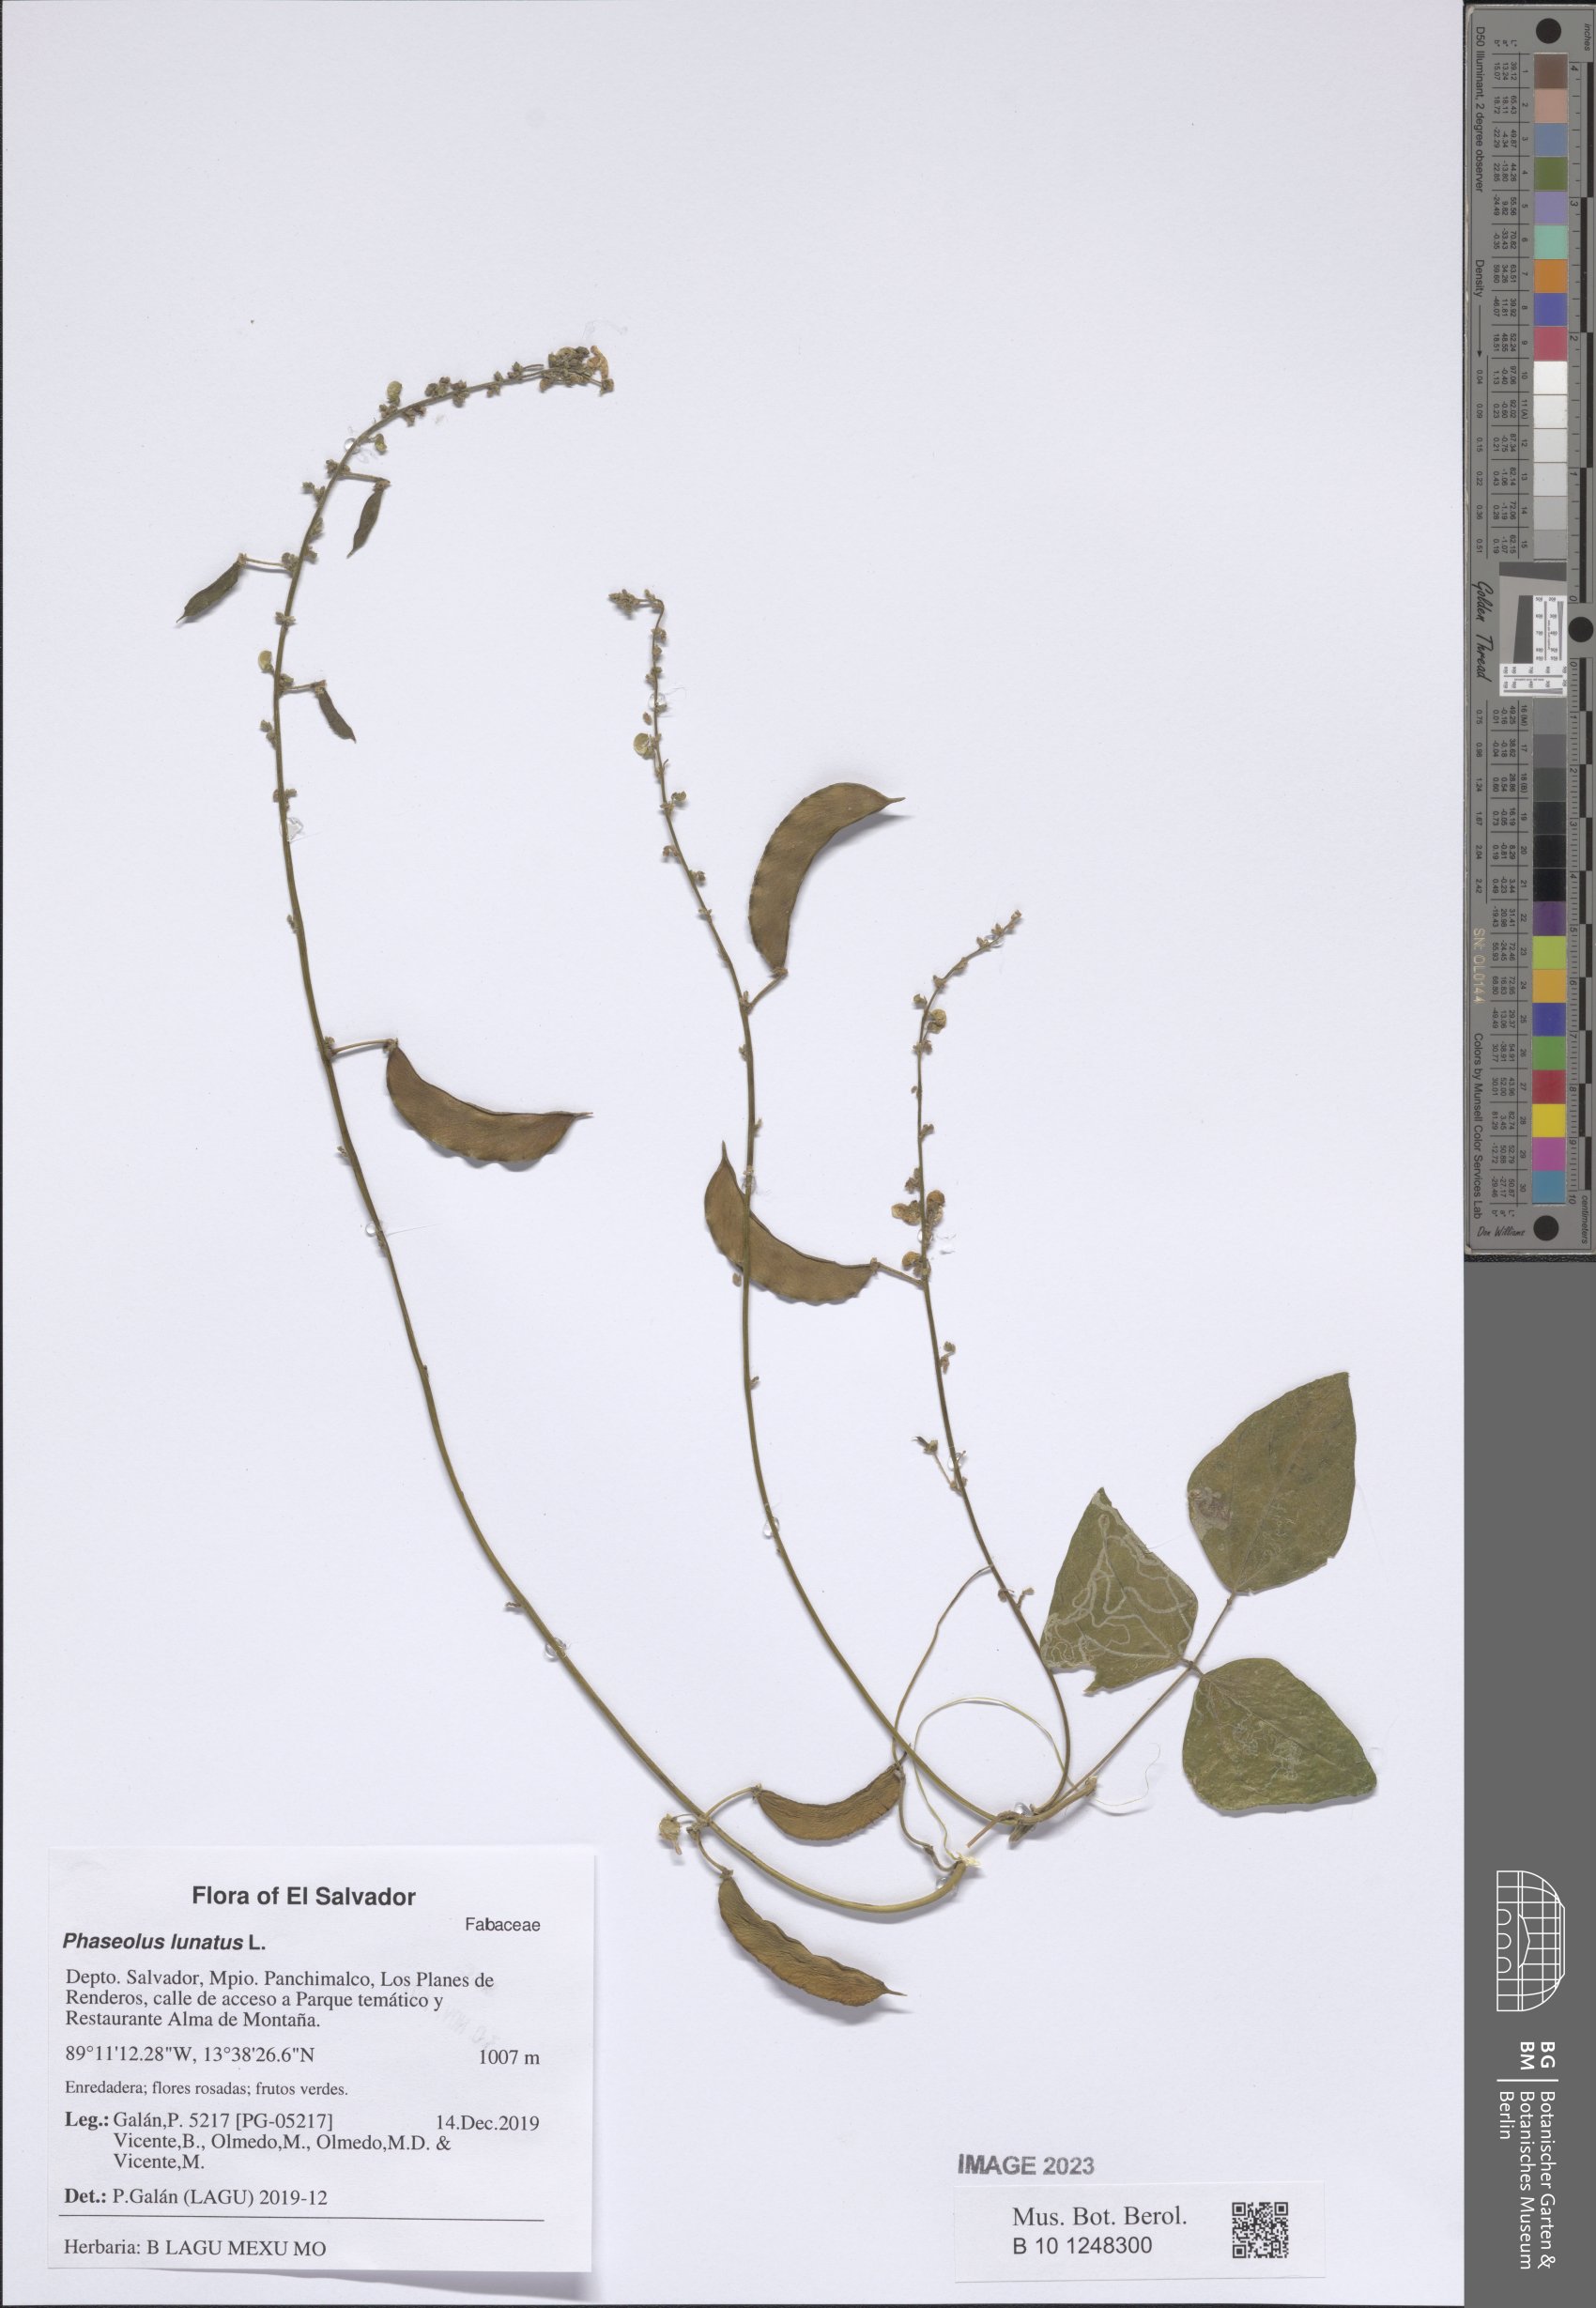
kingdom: Plantae
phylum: Tracheophyta
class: Magnoliopsida
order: Fabales
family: Fabaceae
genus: Phaseolus
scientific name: Phaseolus lunatus
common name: Sieva bean
